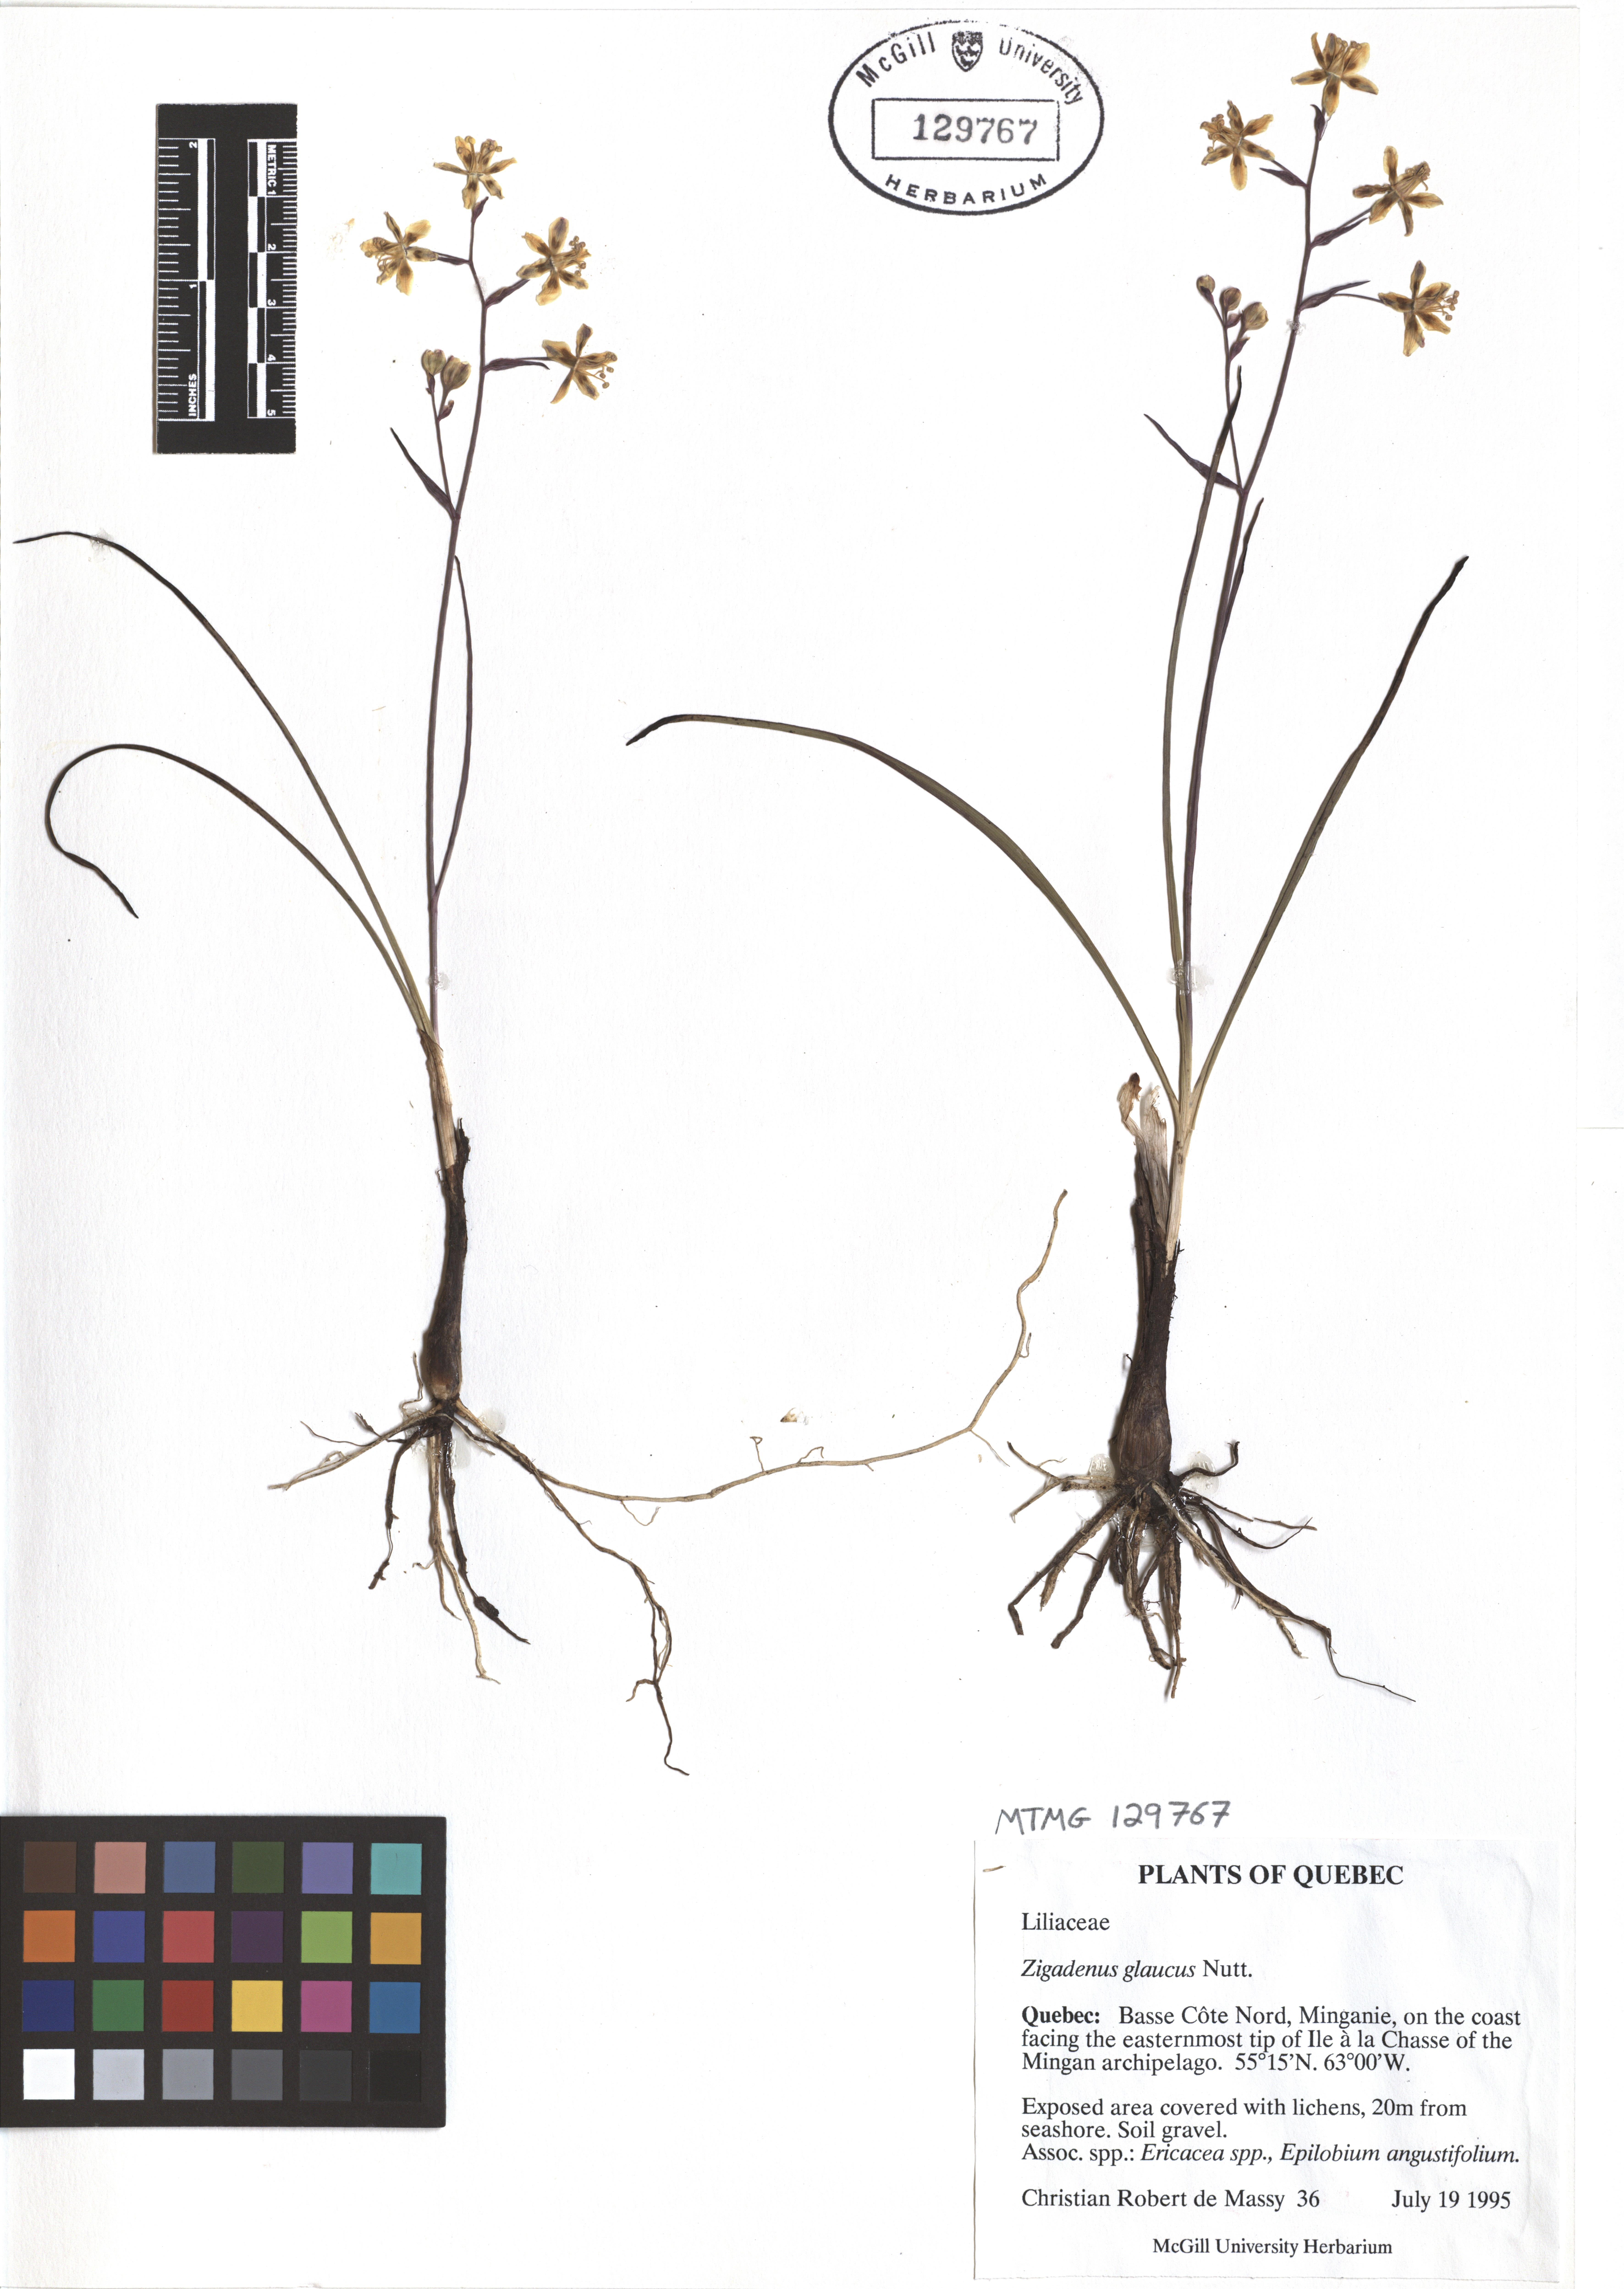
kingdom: Plantae
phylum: Tracheophyta
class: Liliopsida
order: Liliales
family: Melanthiaceae
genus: Anticlea
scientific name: Anticlea elegans
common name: Mountain death camas
